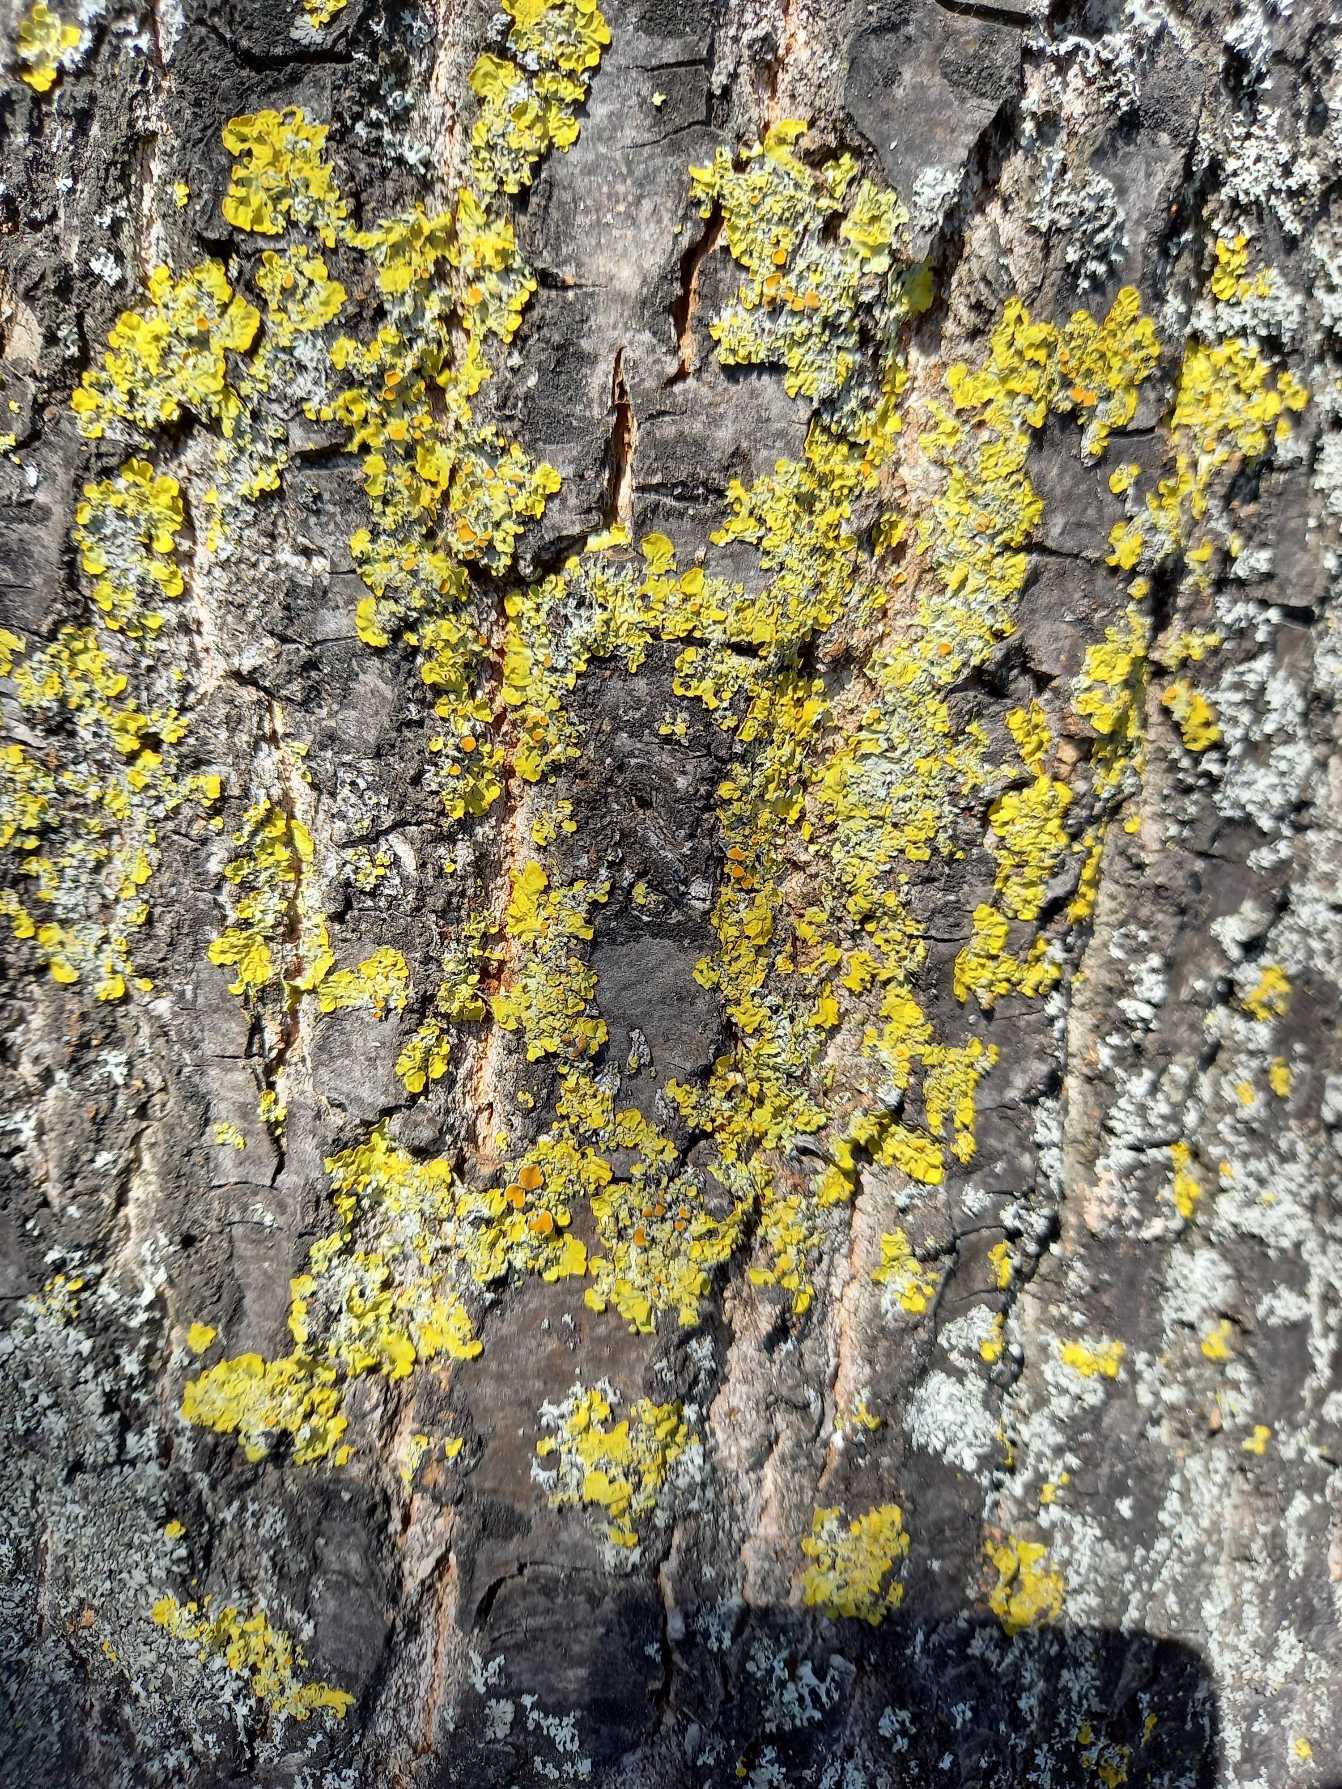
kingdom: Fungi
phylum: Ascomycota
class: Lecanoromycetes
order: Teloschistales
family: Teloschistaceae
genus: Xanthoria
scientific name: Xanthoria parietina
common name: Almindelig væggelav
